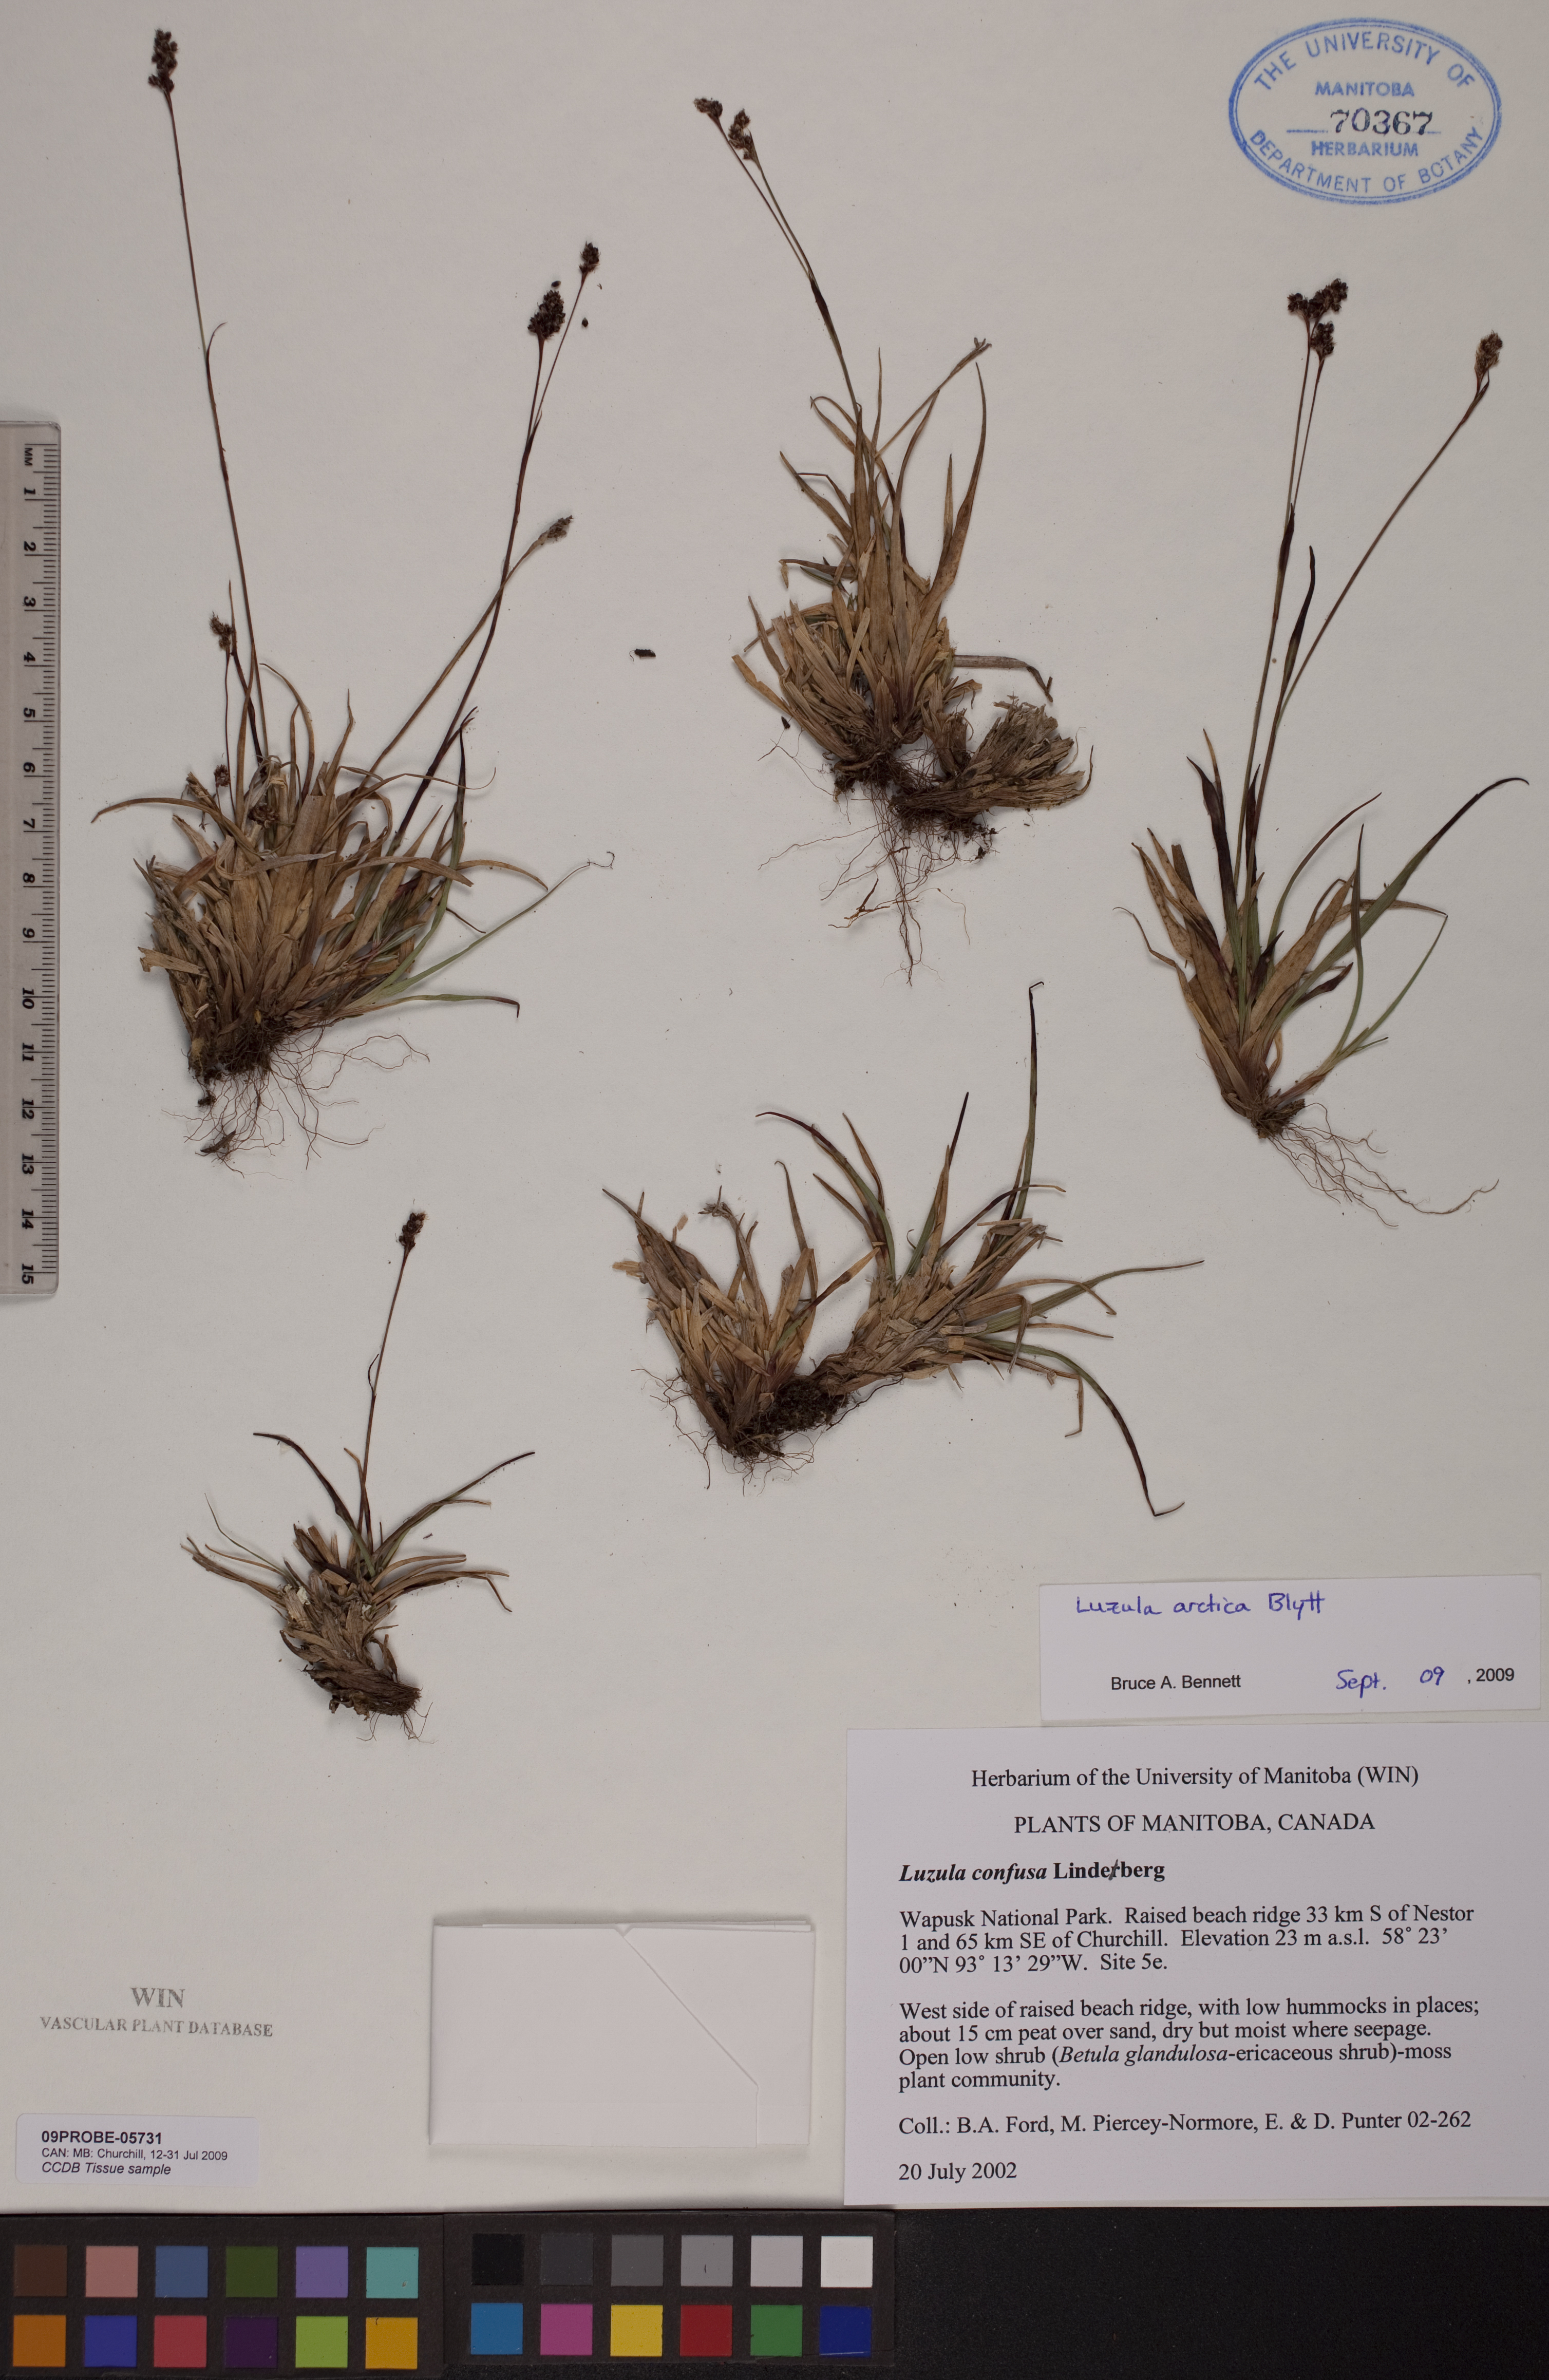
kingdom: Plantae
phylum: Tracheophyta
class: Liliopsida
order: Poales
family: Juncaceae
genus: Luzula
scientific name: Luzula nivalis
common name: Arctic woodrush
